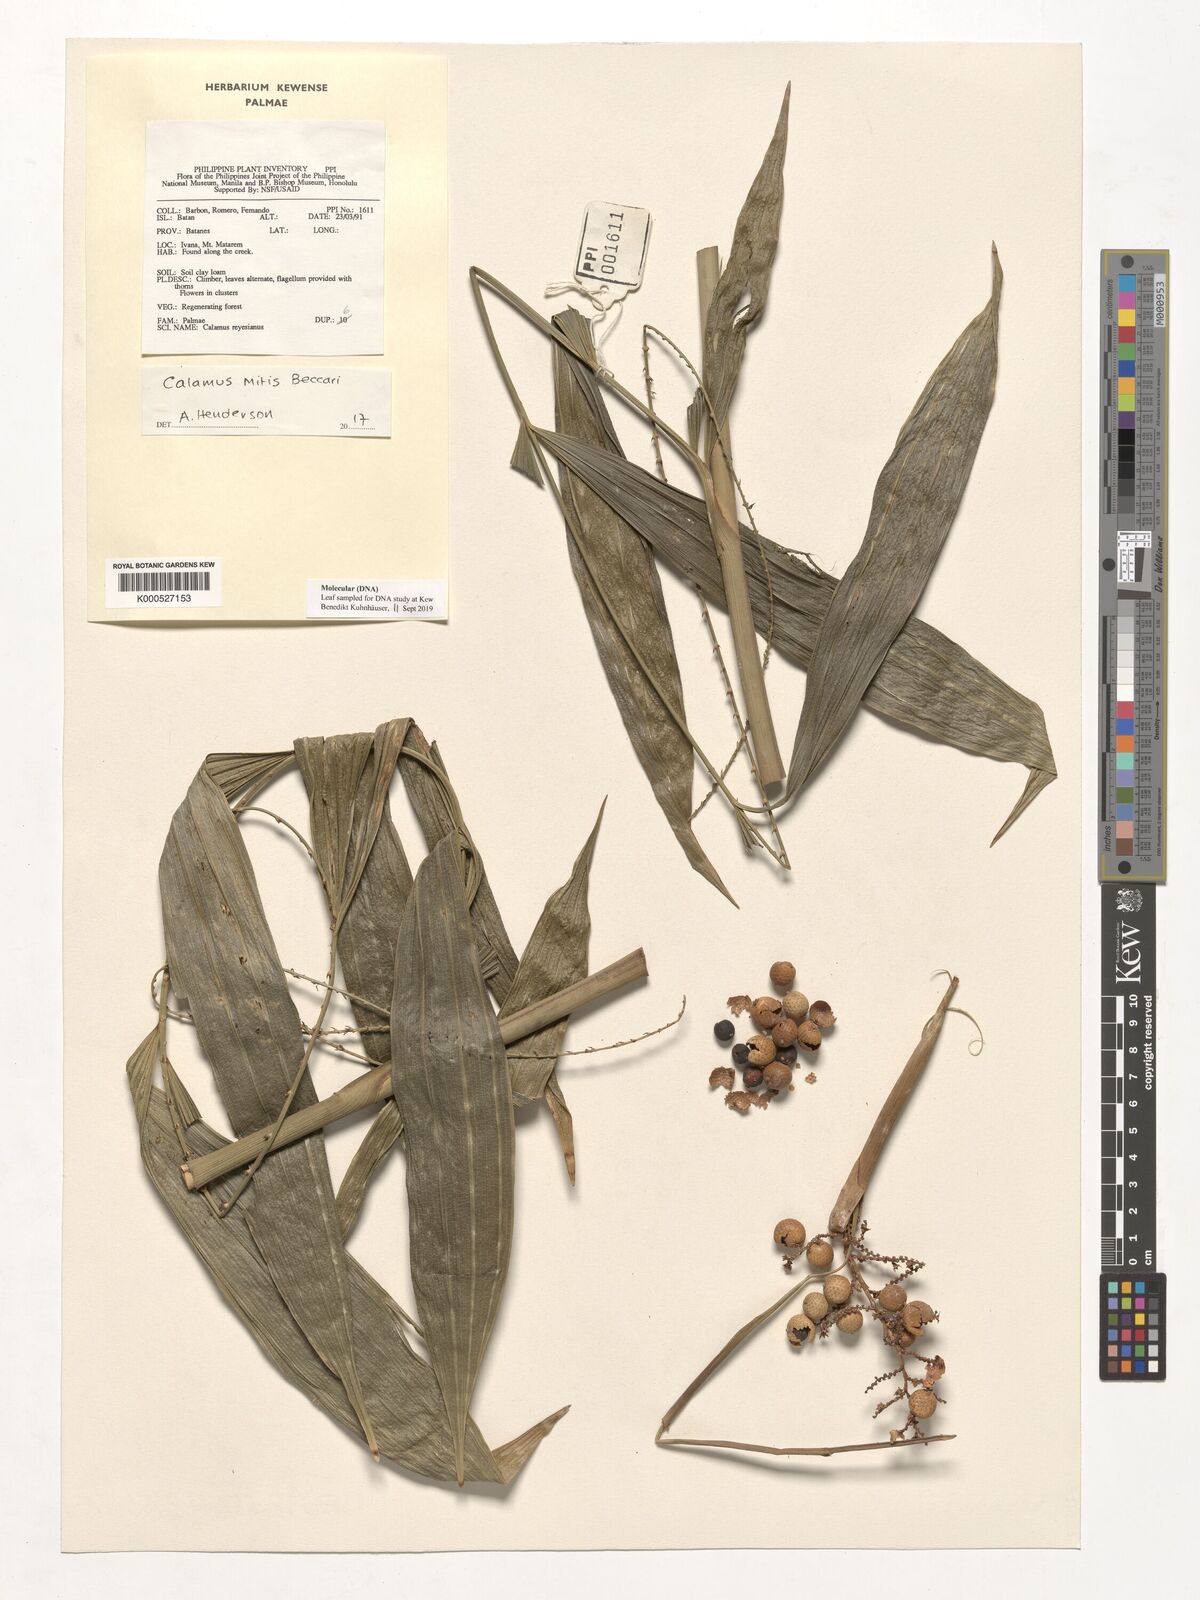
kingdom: Plantae
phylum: Tracheophyta
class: Liliopsida
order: Arecales
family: Arecaceae
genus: Calamus
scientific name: Calamus mitis
